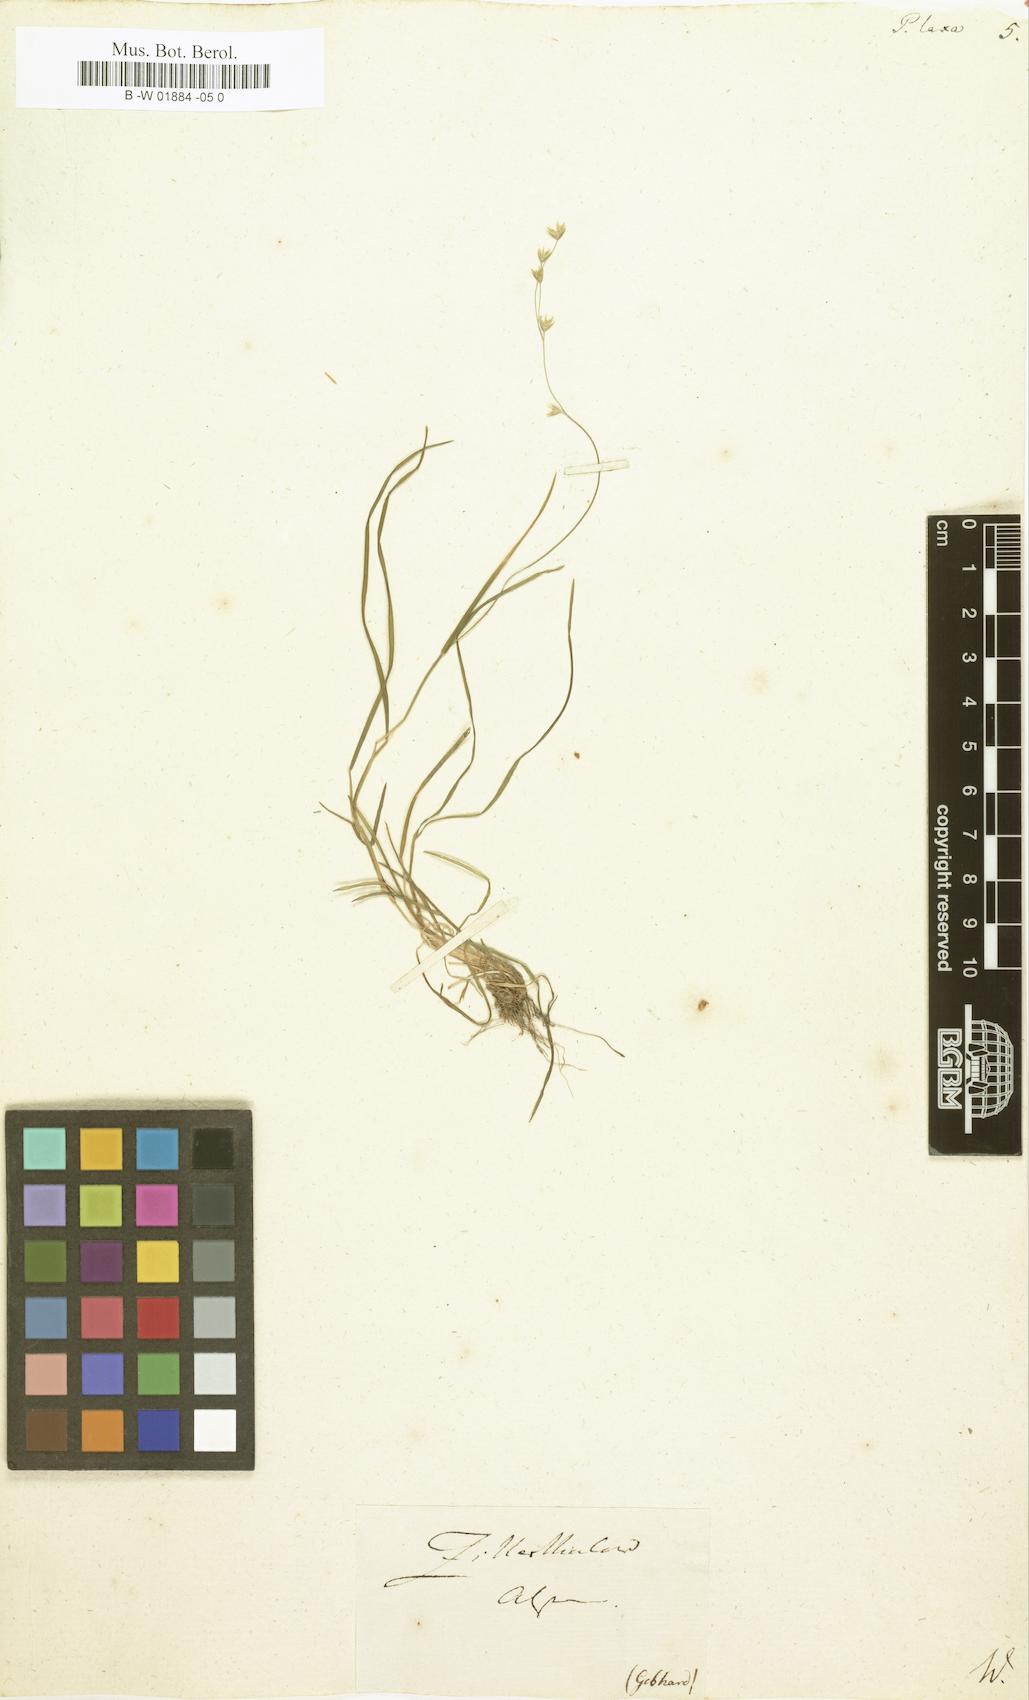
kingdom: Plantae
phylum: Tracheophyta
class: Liliopsida
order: Poales
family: Poaceae
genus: Poa
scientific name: Poa laxa
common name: Lax bluegrass
